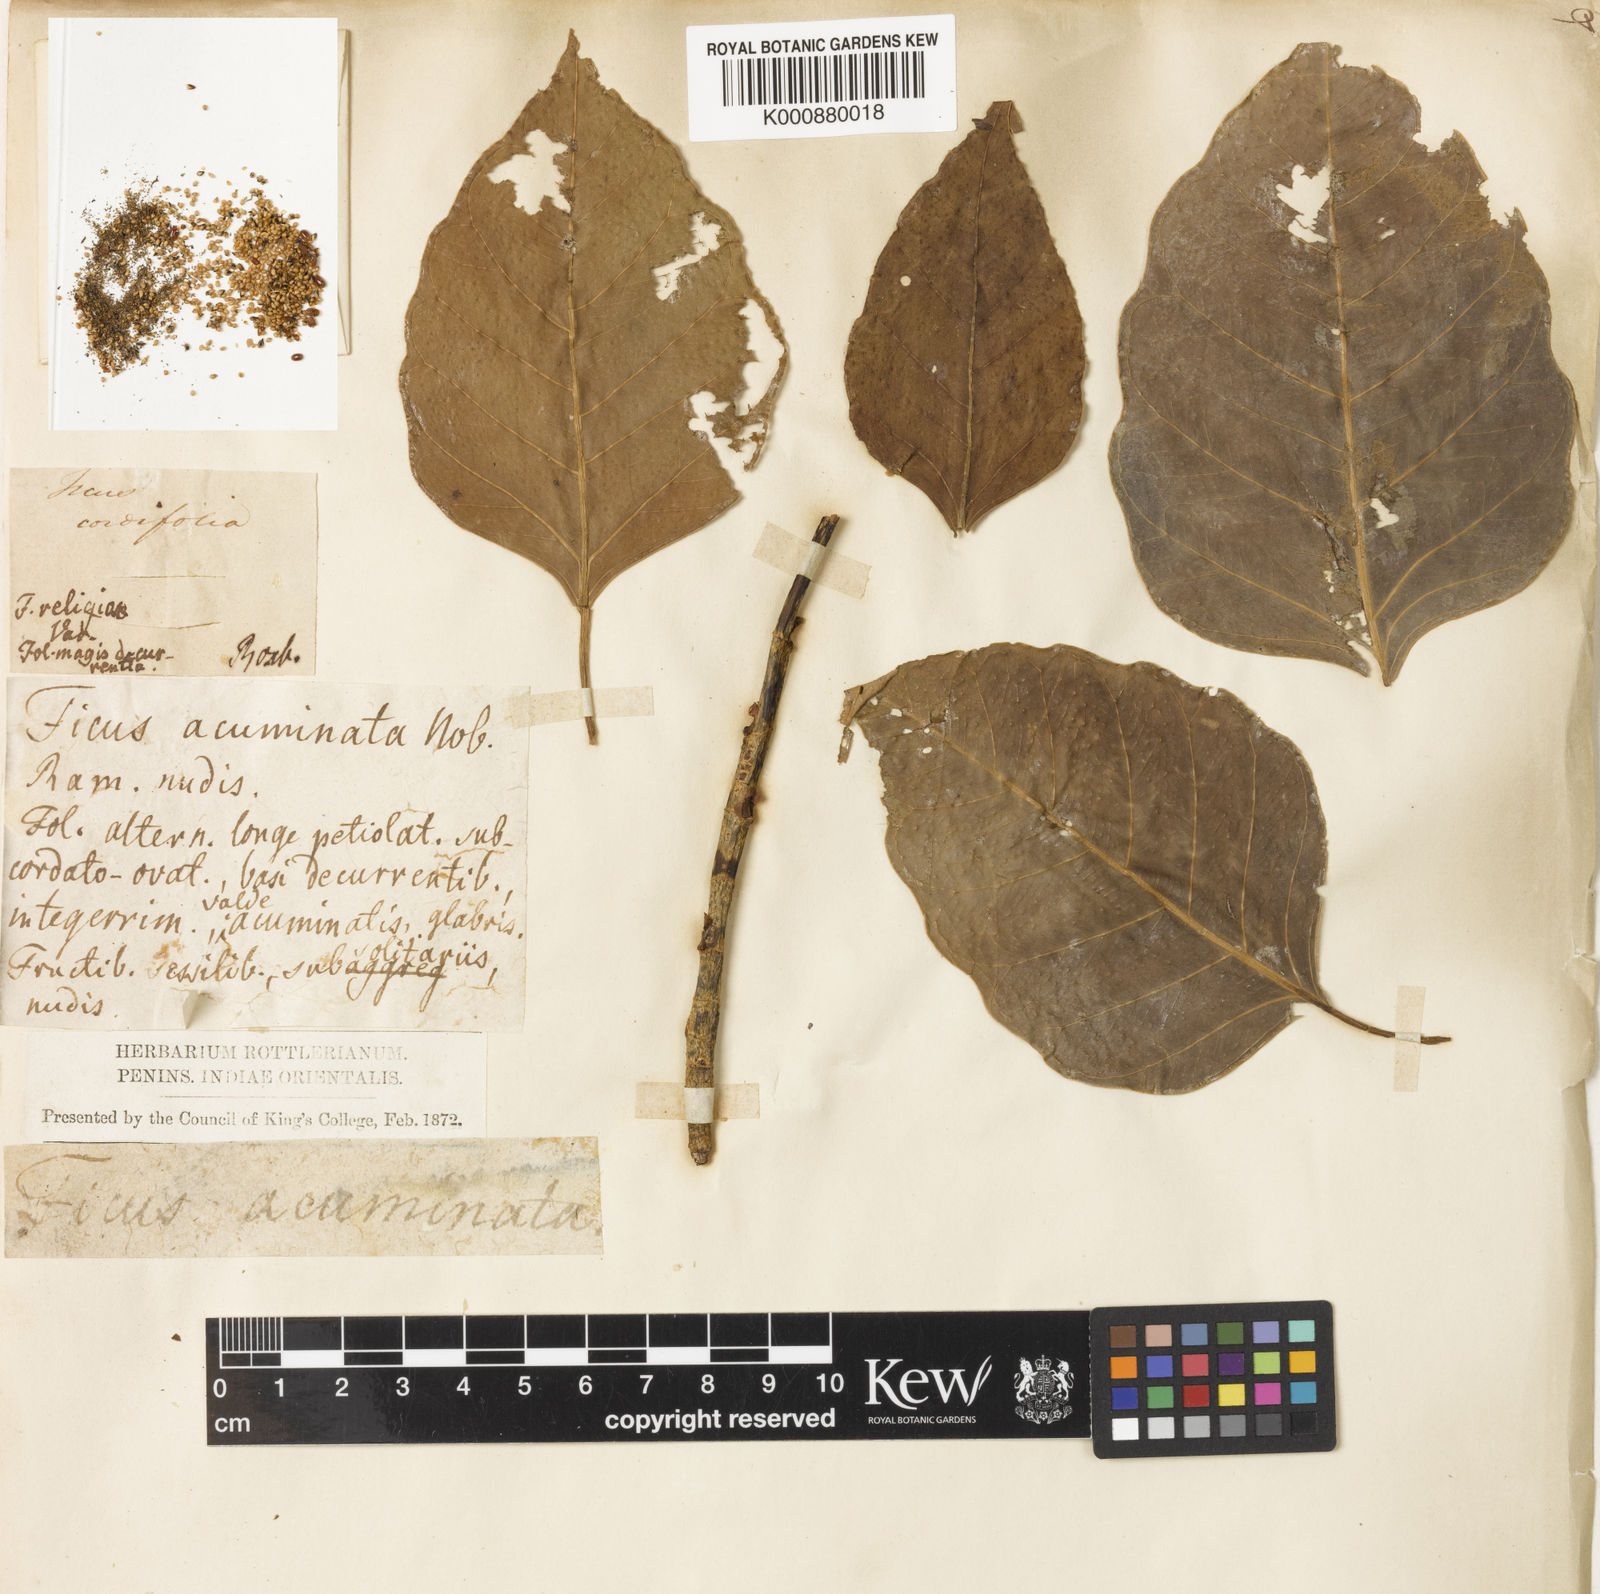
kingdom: Plantae
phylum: Tracheophyta
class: Magnoliopsida
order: Rosales
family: Moraceae
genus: Ficus
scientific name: Ficus rumphii
